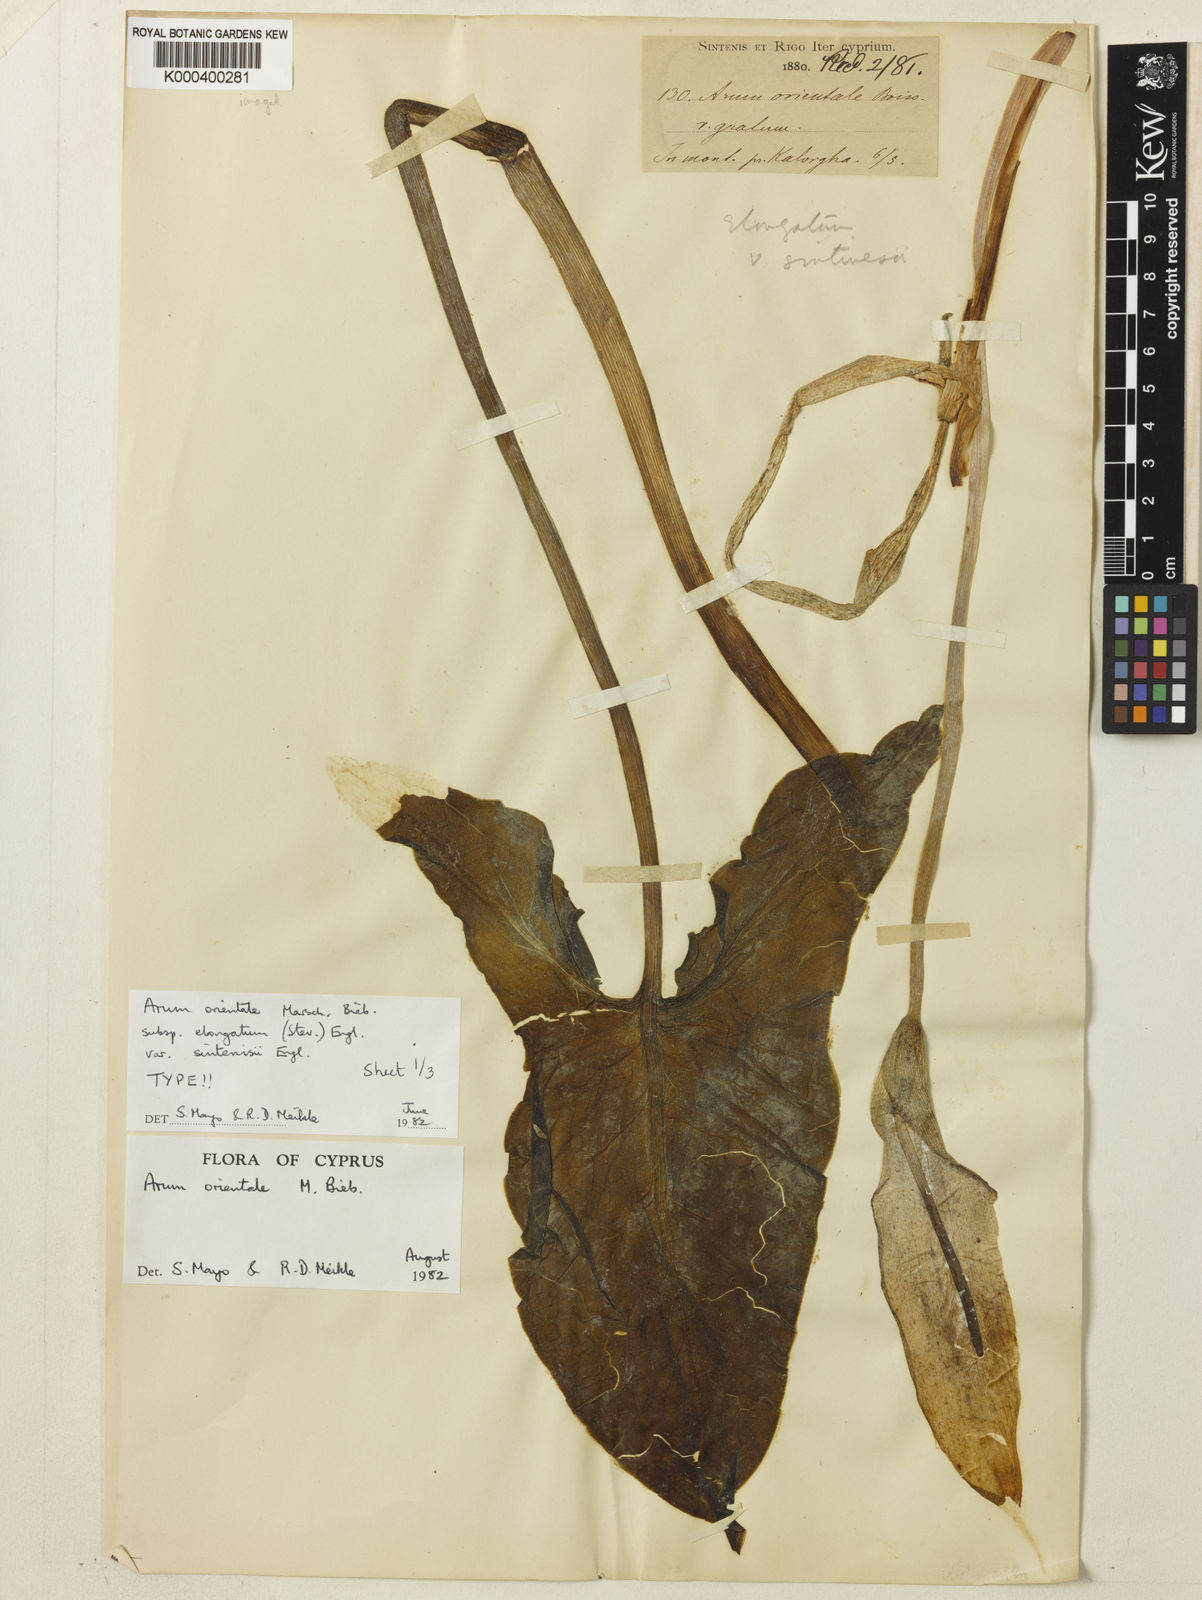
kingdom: Plantae
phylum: Tracheophyta
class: Liliopsida
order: Alismatales
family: Araceae
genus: Arum
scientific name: Arum sintenisii
